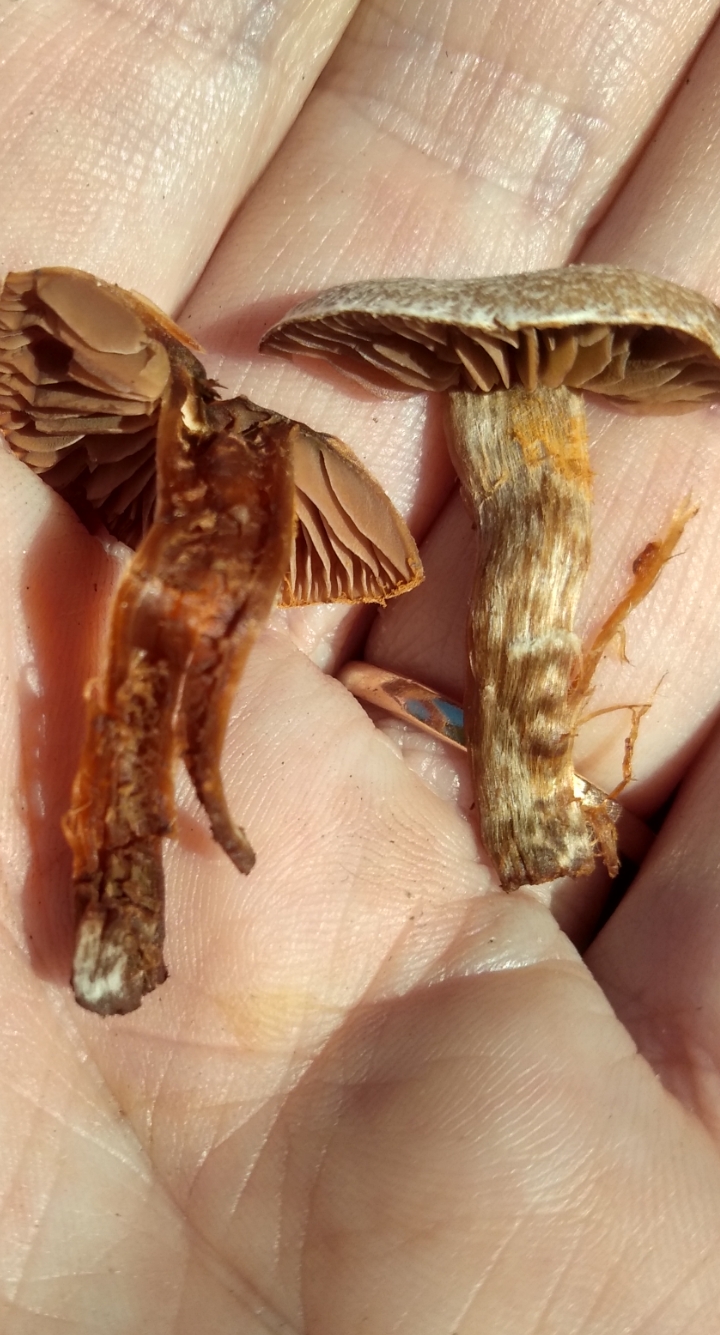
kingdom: Fungi
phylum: Basidiomycota
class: Agaricomycetes
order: Agaricales
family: Cortinariaceae
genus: Cortinarius
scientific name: Cortinarius
